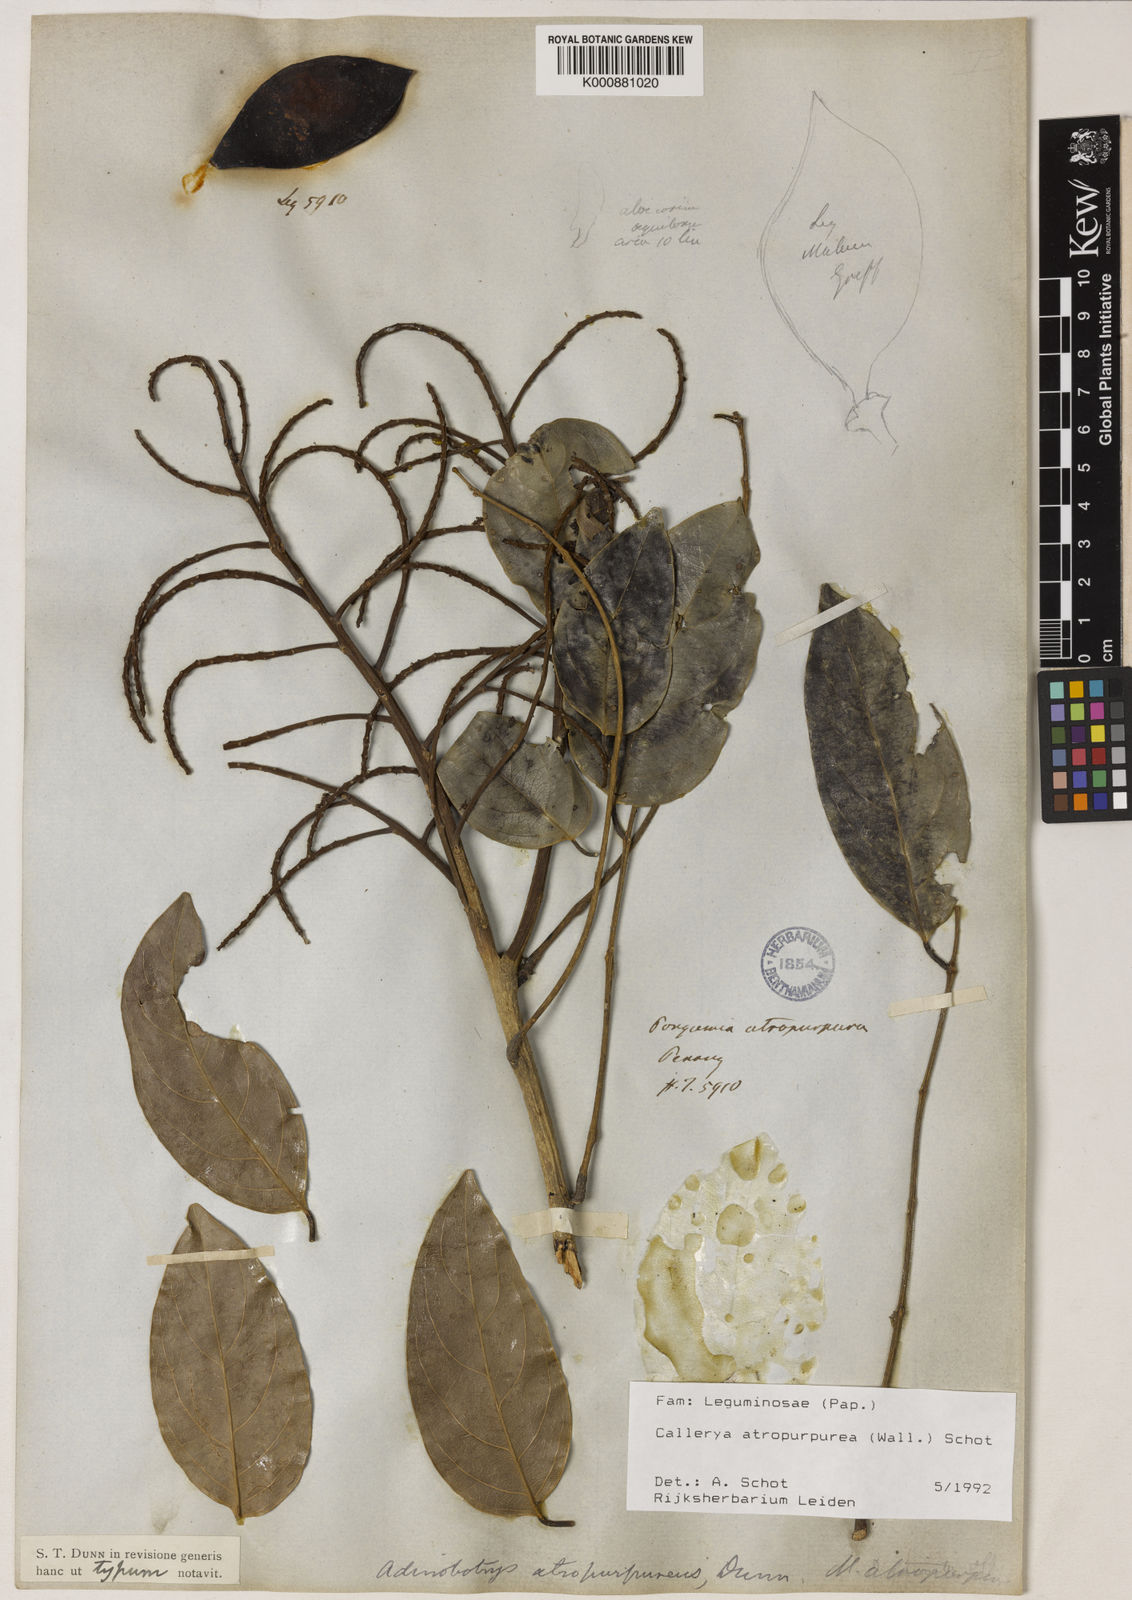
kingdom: Plantae
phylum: Tracheophyta
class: Magnoliopsida
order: Fabales
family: Fabaceae
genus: Adinobotrys
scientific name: Adinobotrys atropurpureus
